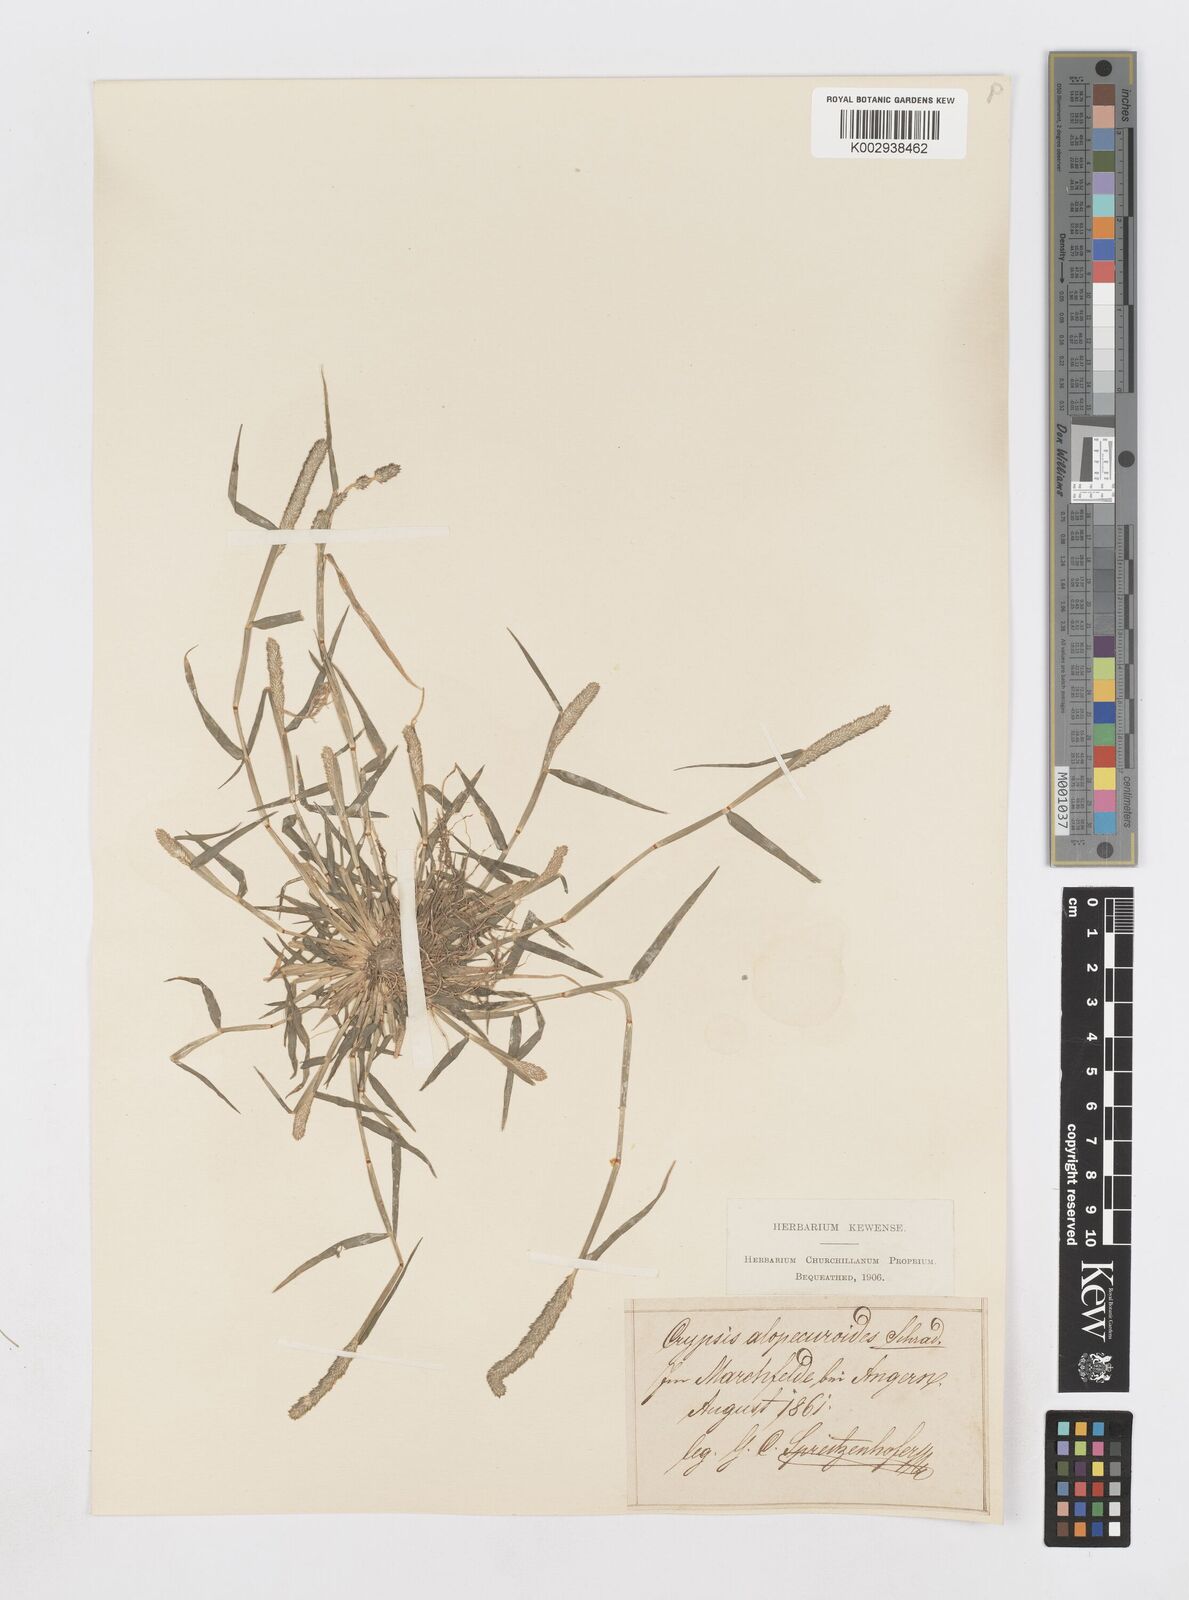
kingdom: Plantae
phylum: Tracheophyta
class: Liliopsida
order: Poales
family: Poaceae
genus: Sporobolus
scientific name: Sporobolus alopecuroides
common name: Foxtail pricklegrass
